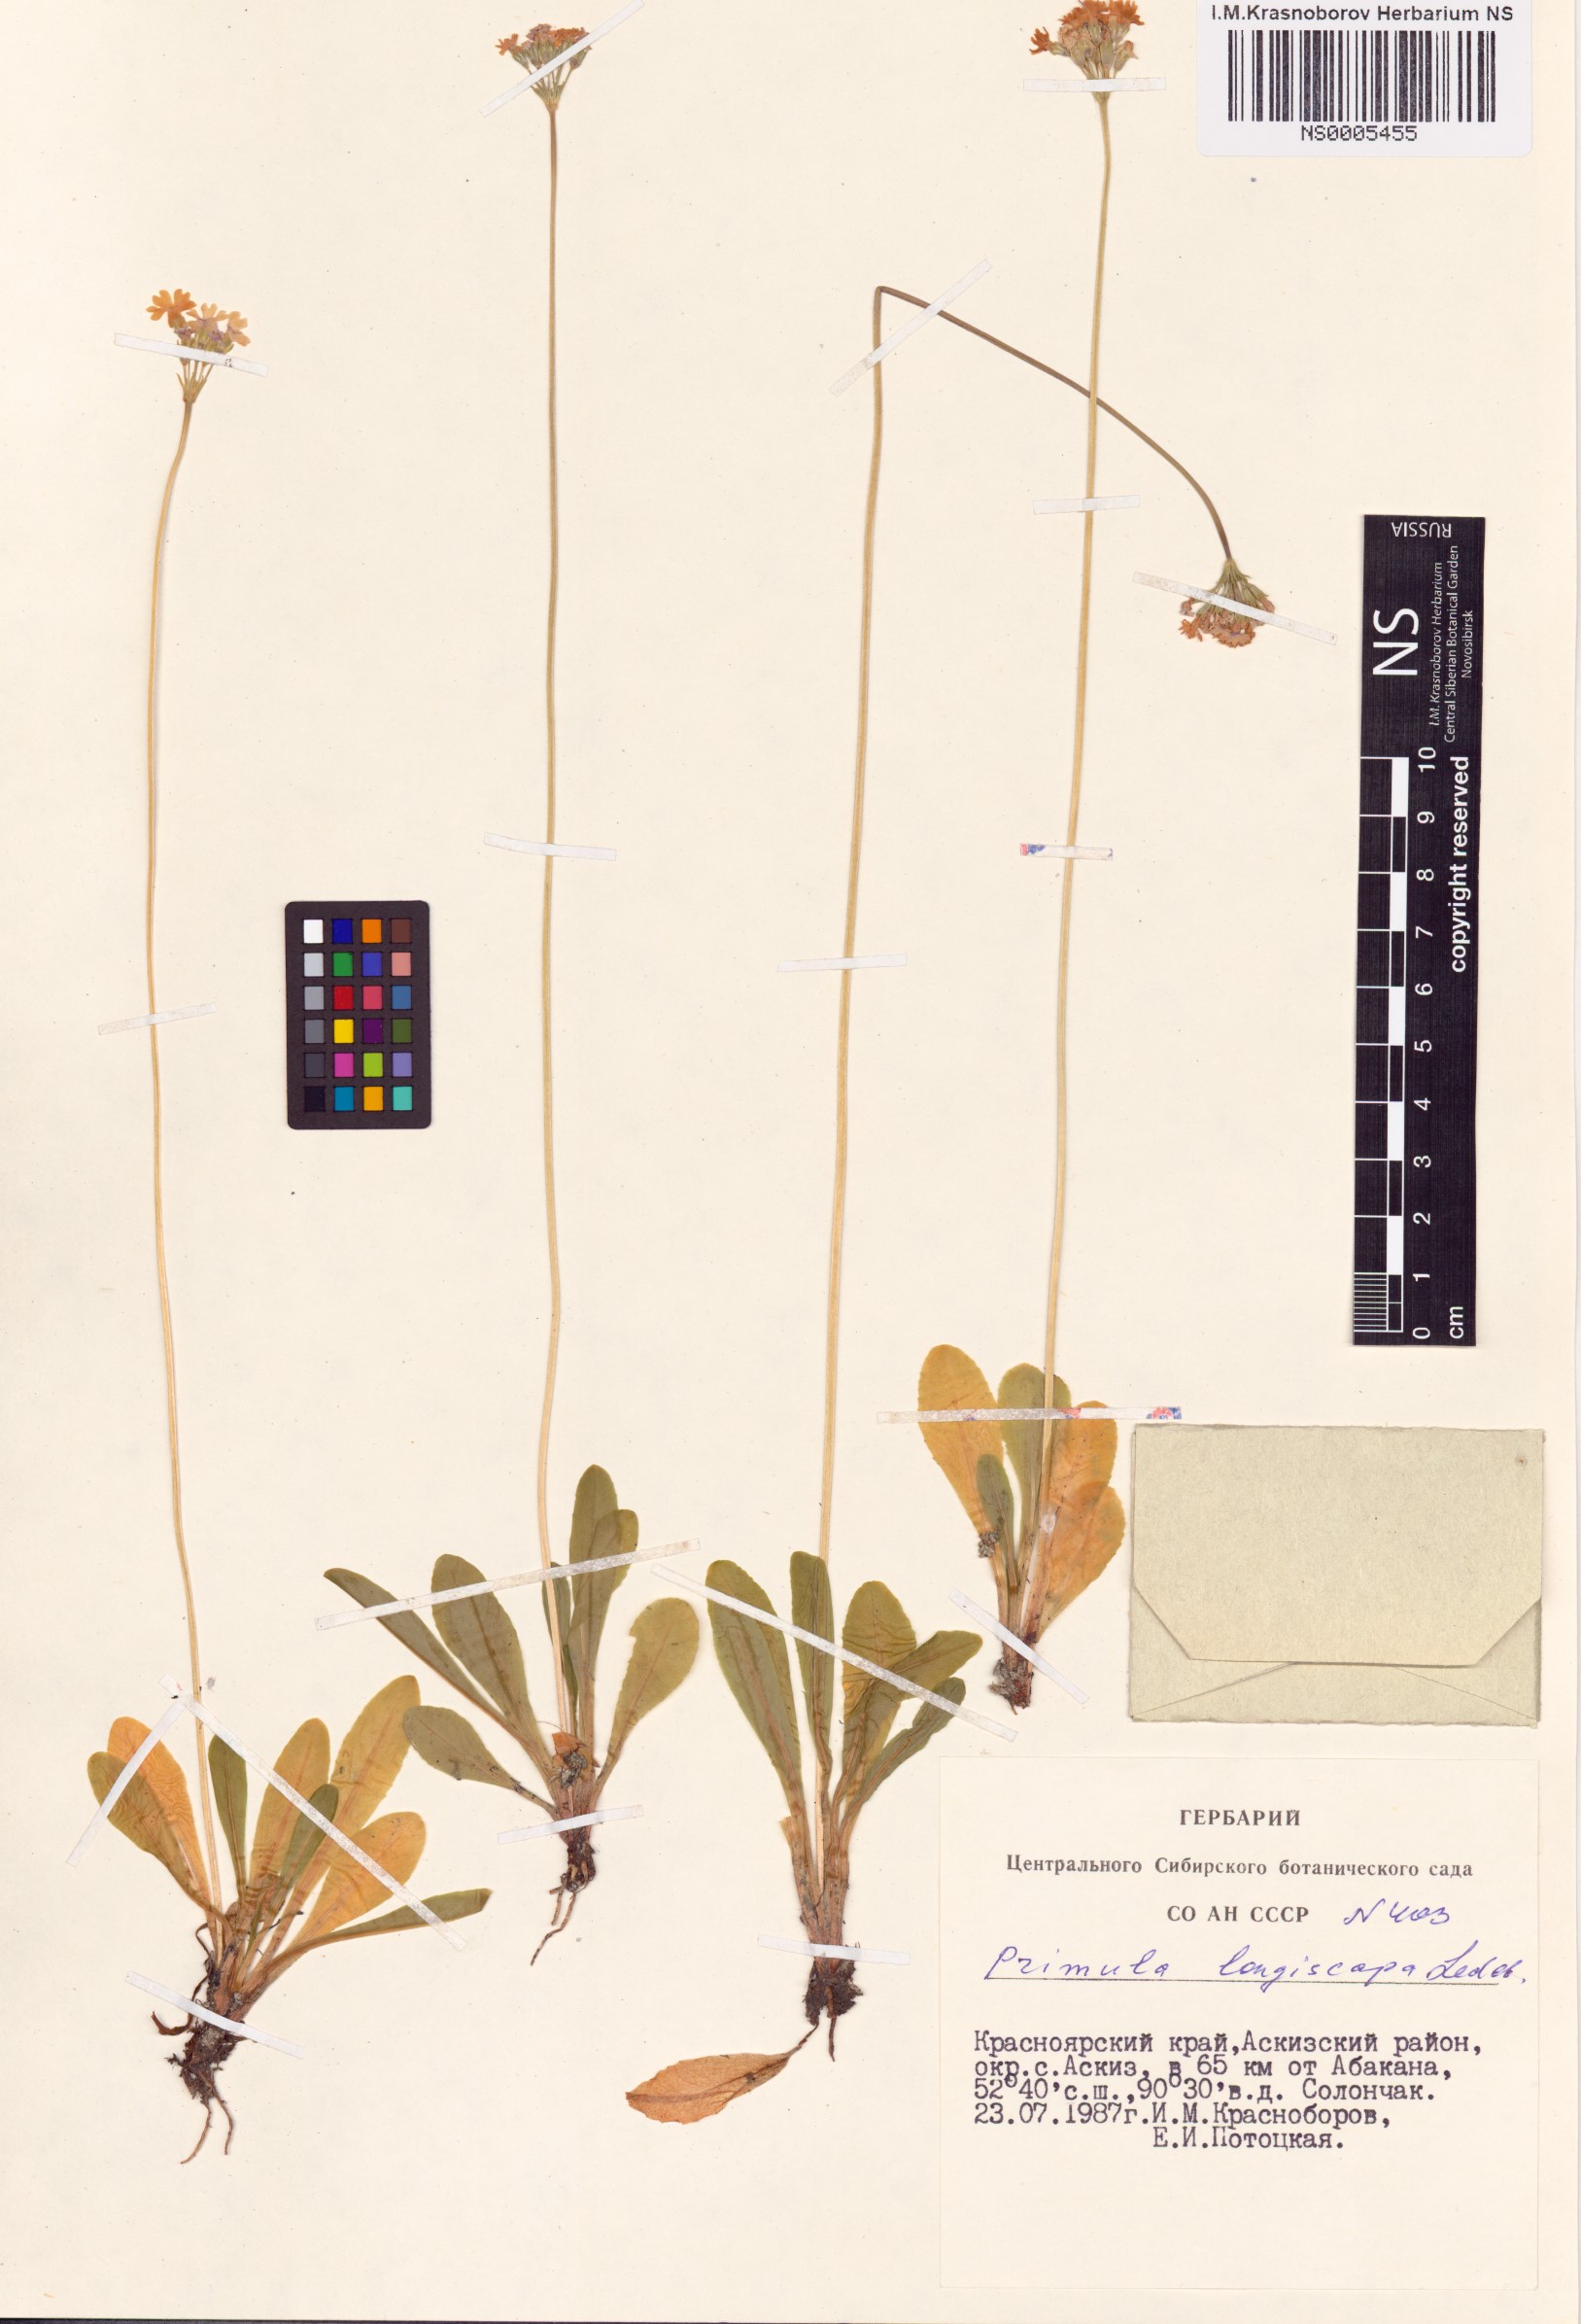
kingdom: Plantae
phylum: Tracheophyta
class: Magnoliopsida
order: Ericales
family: Primulaceae
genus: Primula
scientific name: Primula longiscapa
